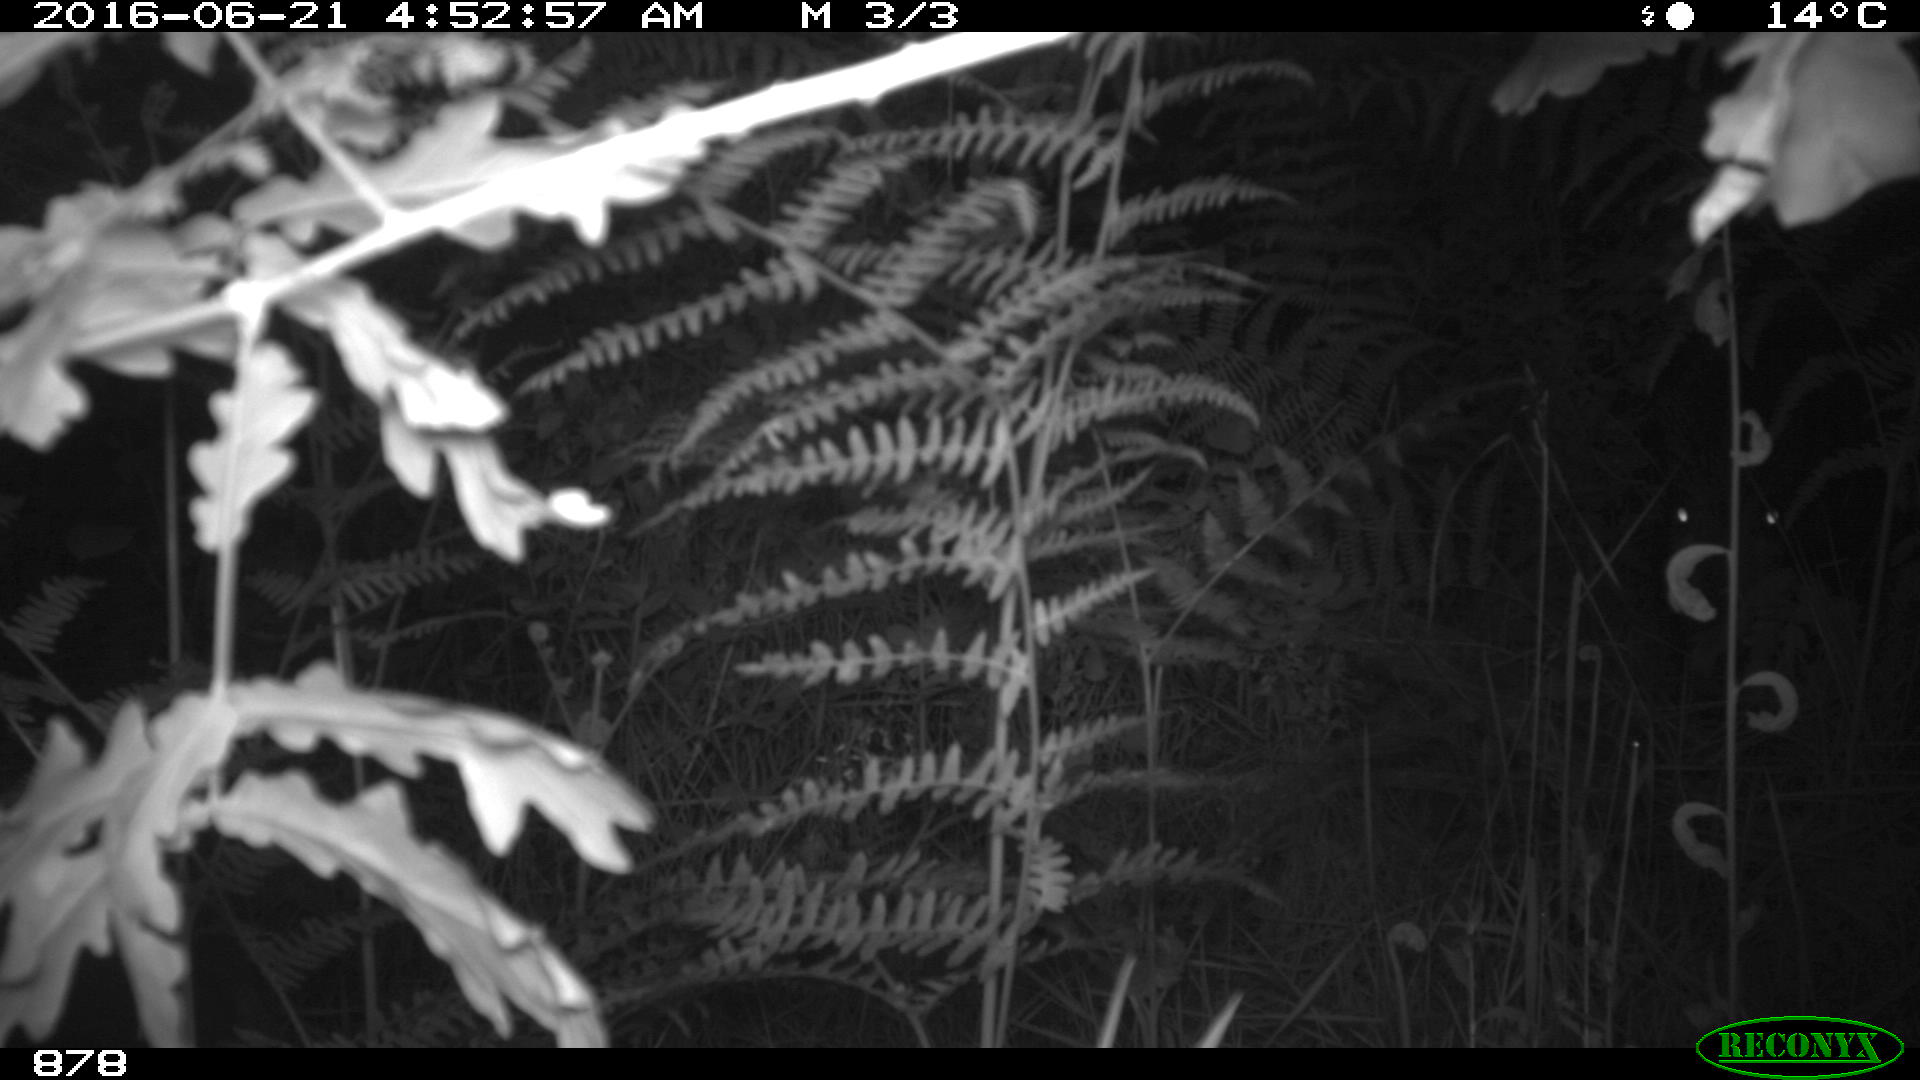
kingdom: Animalia
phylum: Chordata
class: Mammalia
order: Artiodactyla
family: Suidae
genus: Sus
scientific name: Sus scrofa
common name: Wild boar
